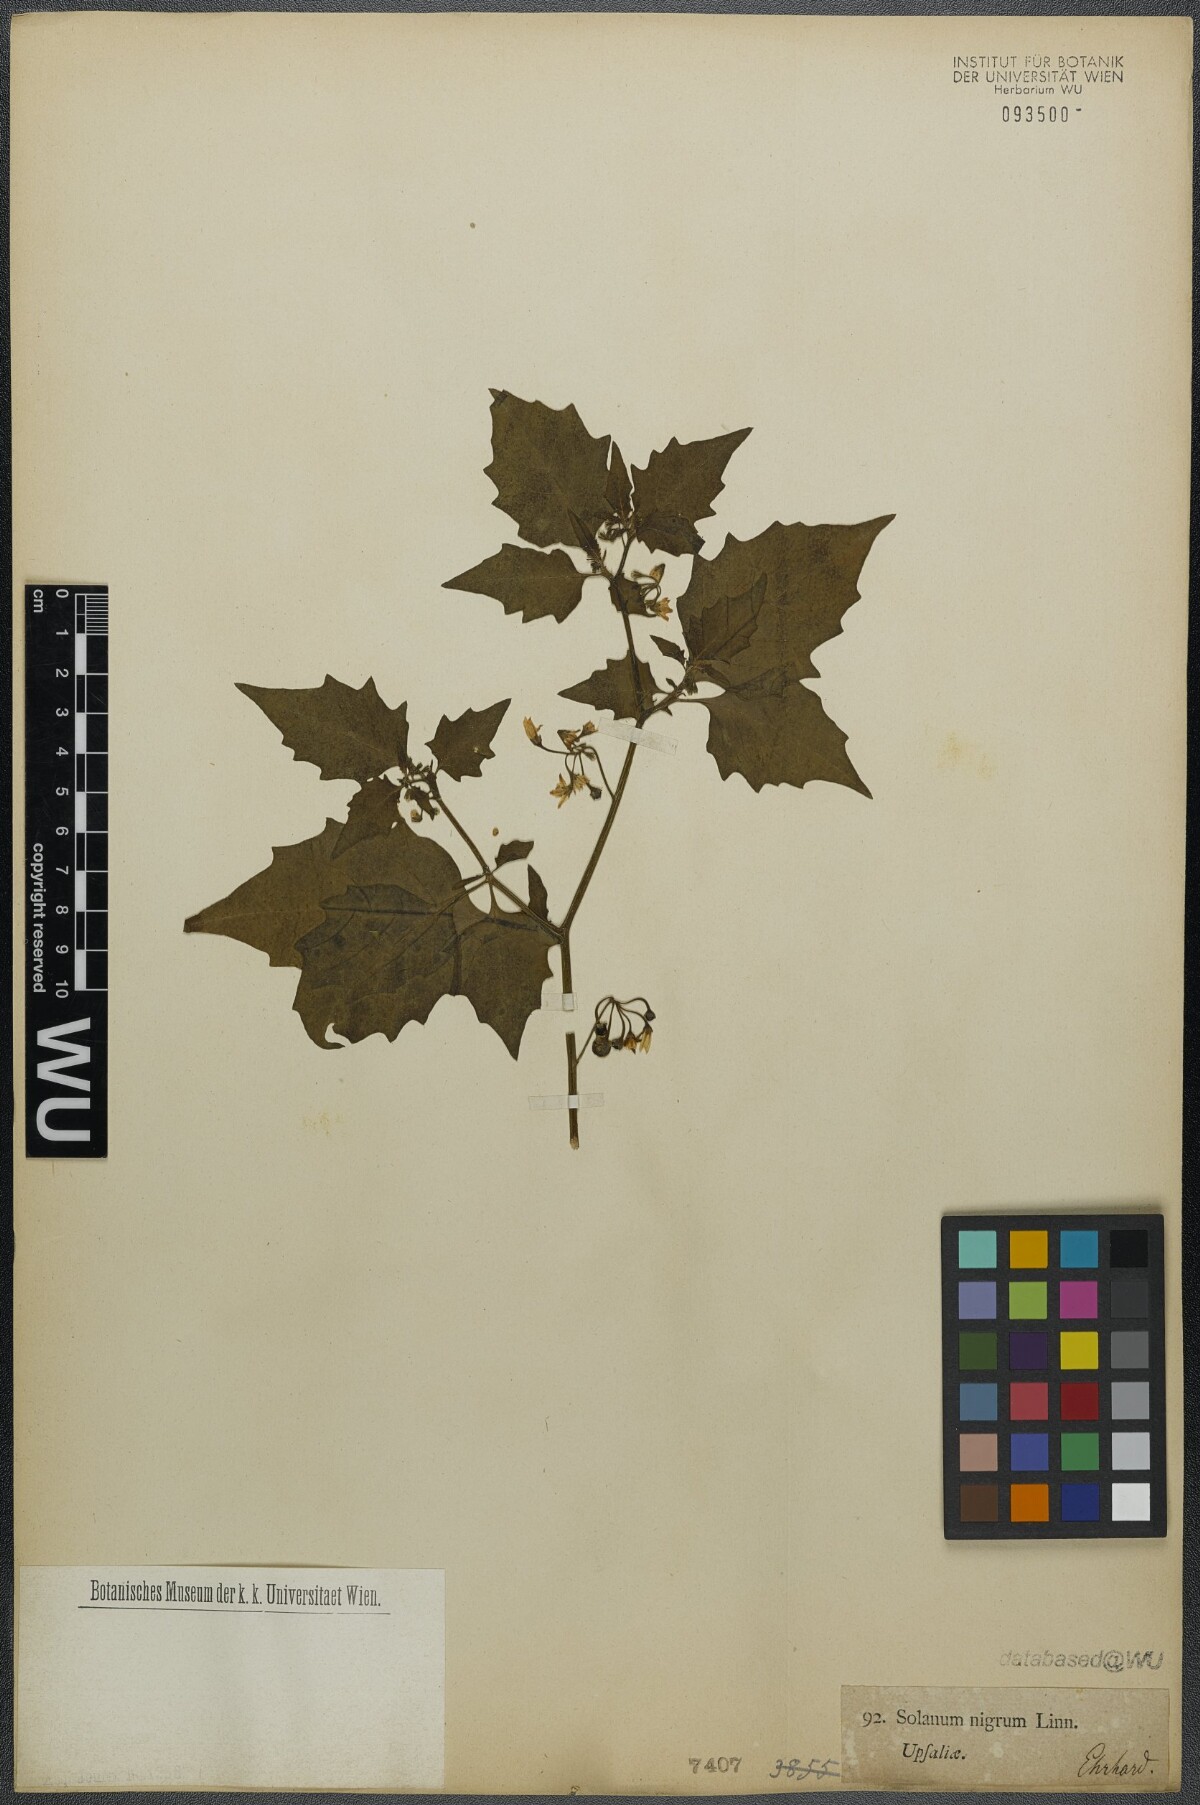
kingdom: Plantae
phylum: Tracheophyta
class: Magnoliopsida
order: Solanales
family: Solanaceae
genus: Solanum
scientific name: Solanum nigrum
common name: Black nightshade
